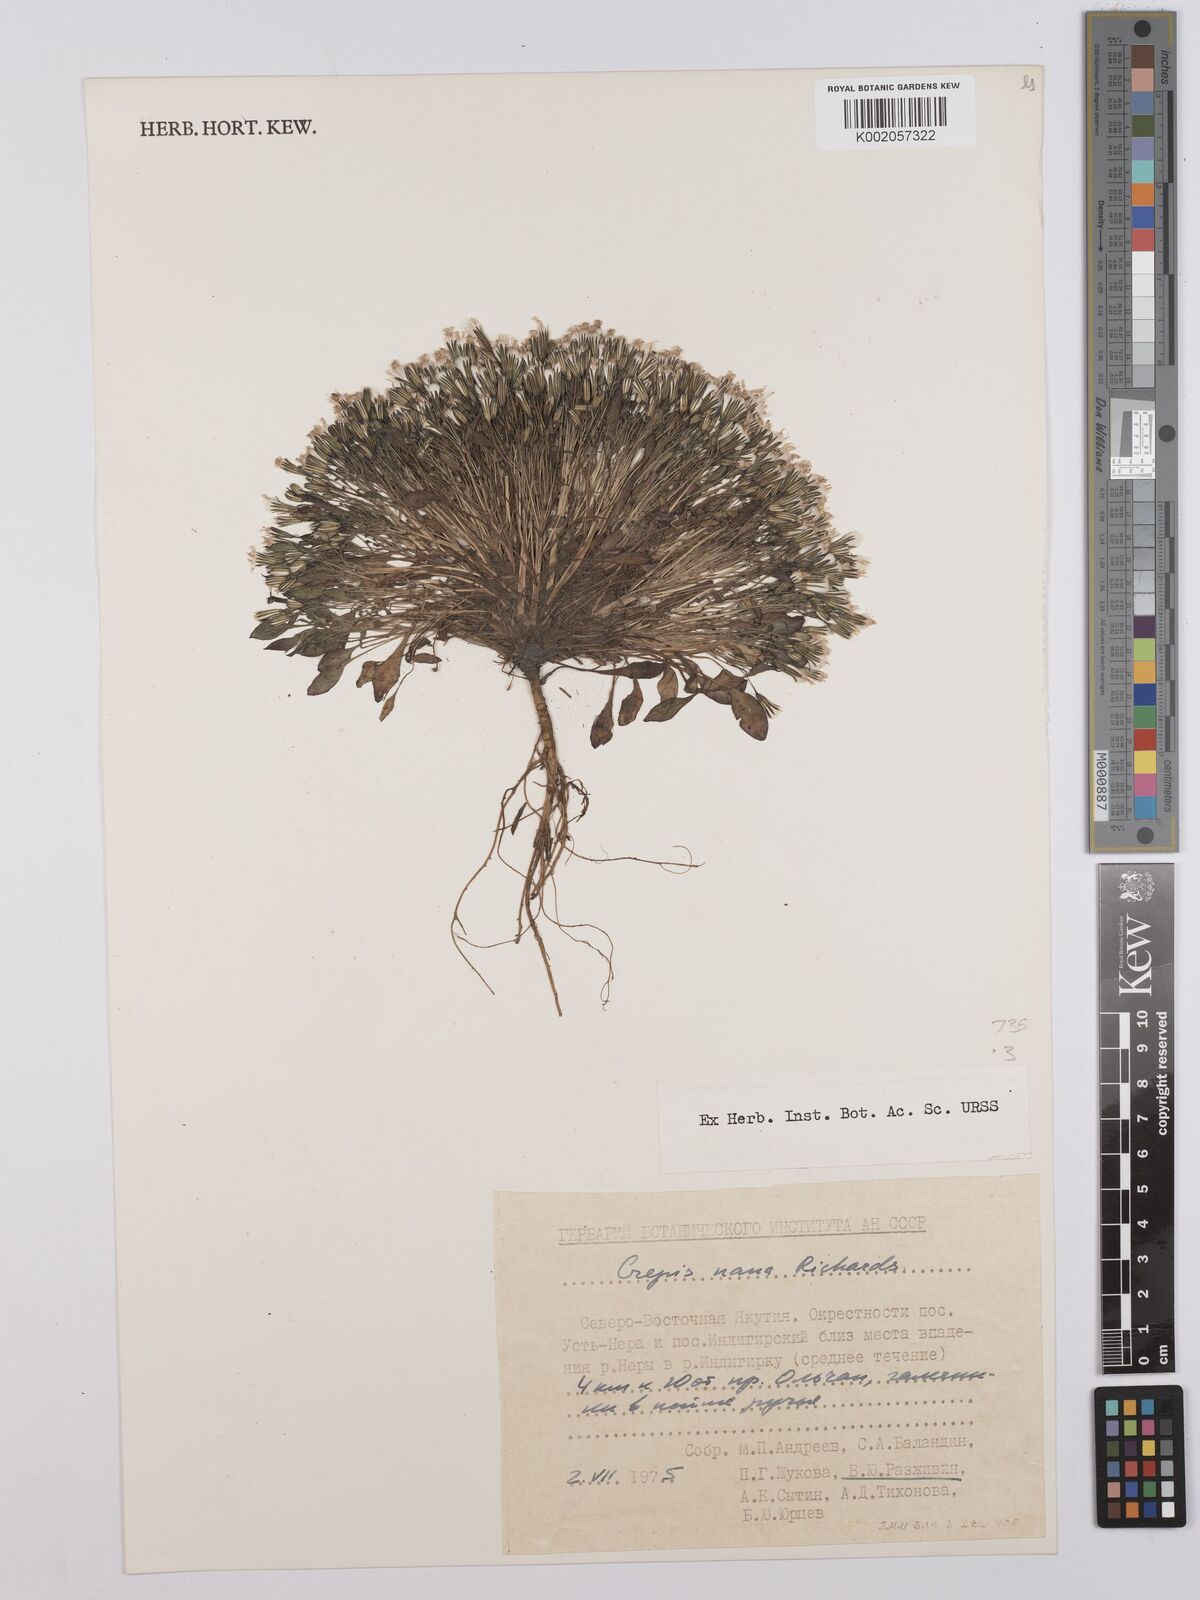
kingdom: Plantae
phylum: Tracheophyta
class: Magnoliopsida
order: Asterales
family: Asteraceae
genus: Askellia
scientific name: Askellia pygmaea
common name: Dwarf alpine hawksbeard
